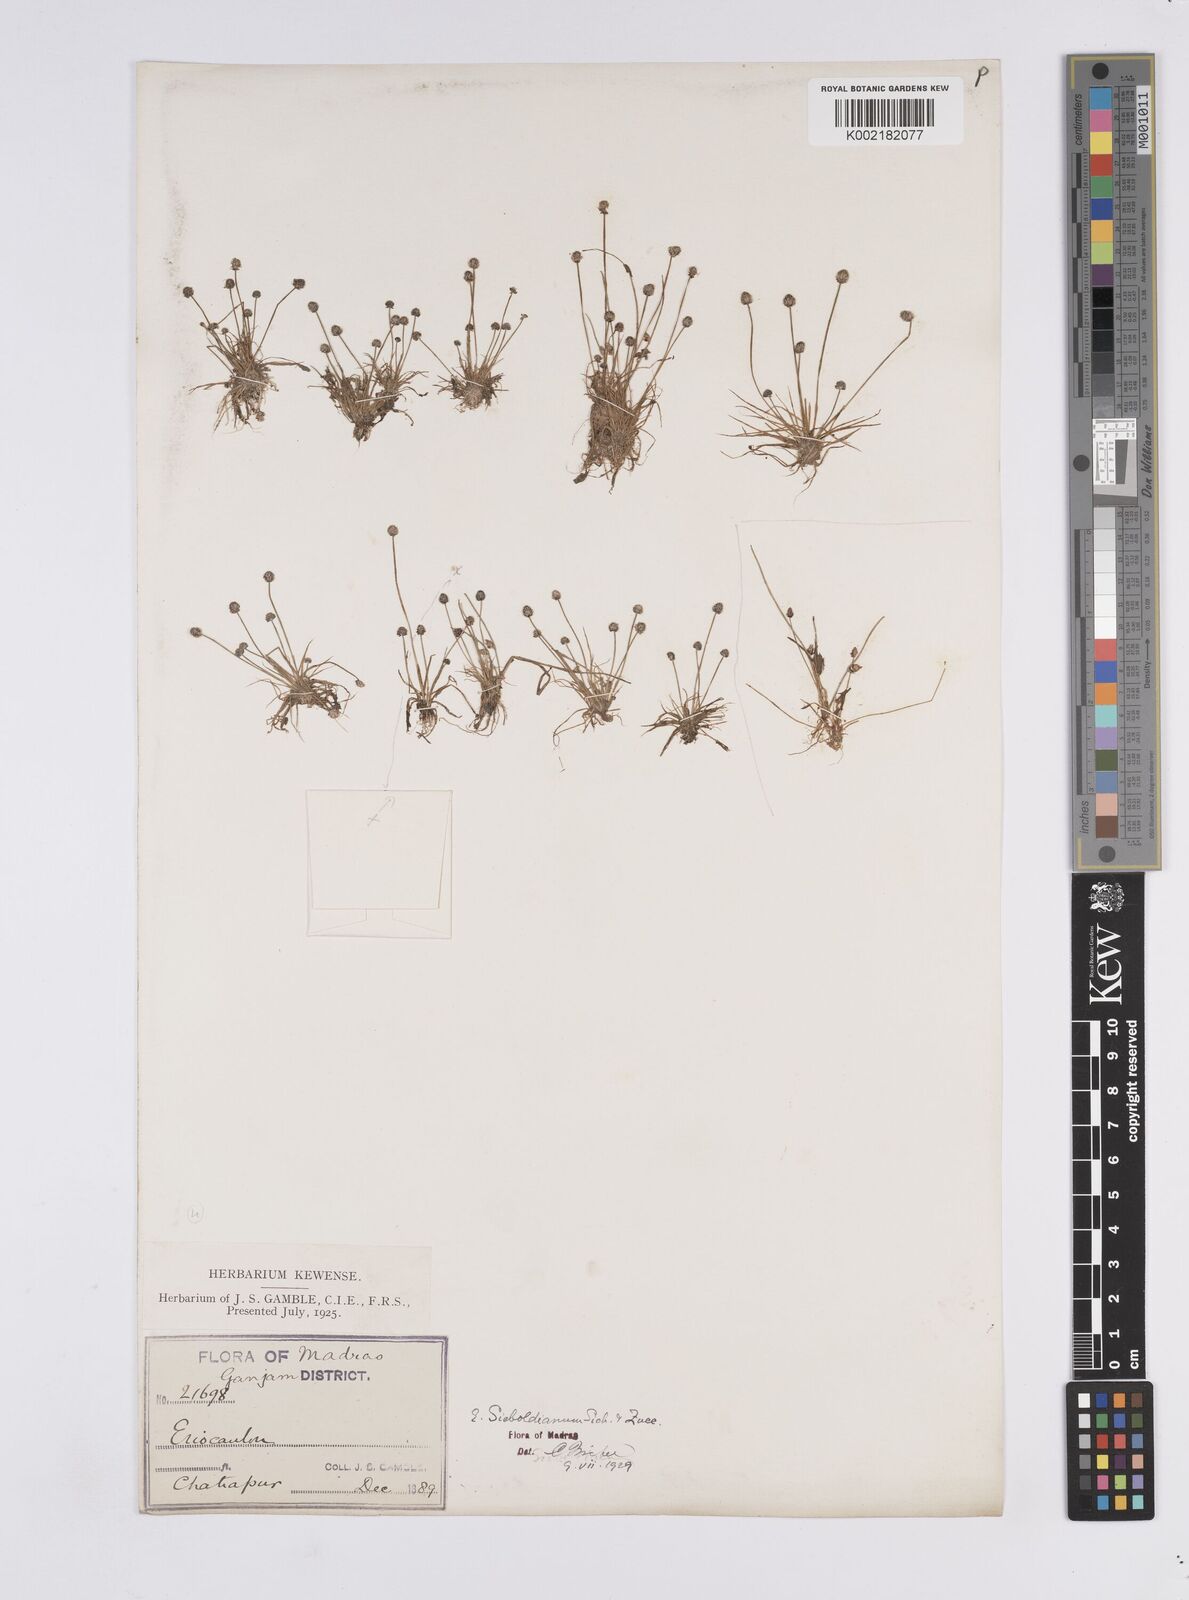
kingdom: Plantae
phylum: Tracheophyta
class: Liliopsida
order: Poales
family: Eriocaulaceae
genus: Eriocaulon
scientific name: Eriocaulon cinereum
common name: Ashy pipewort
